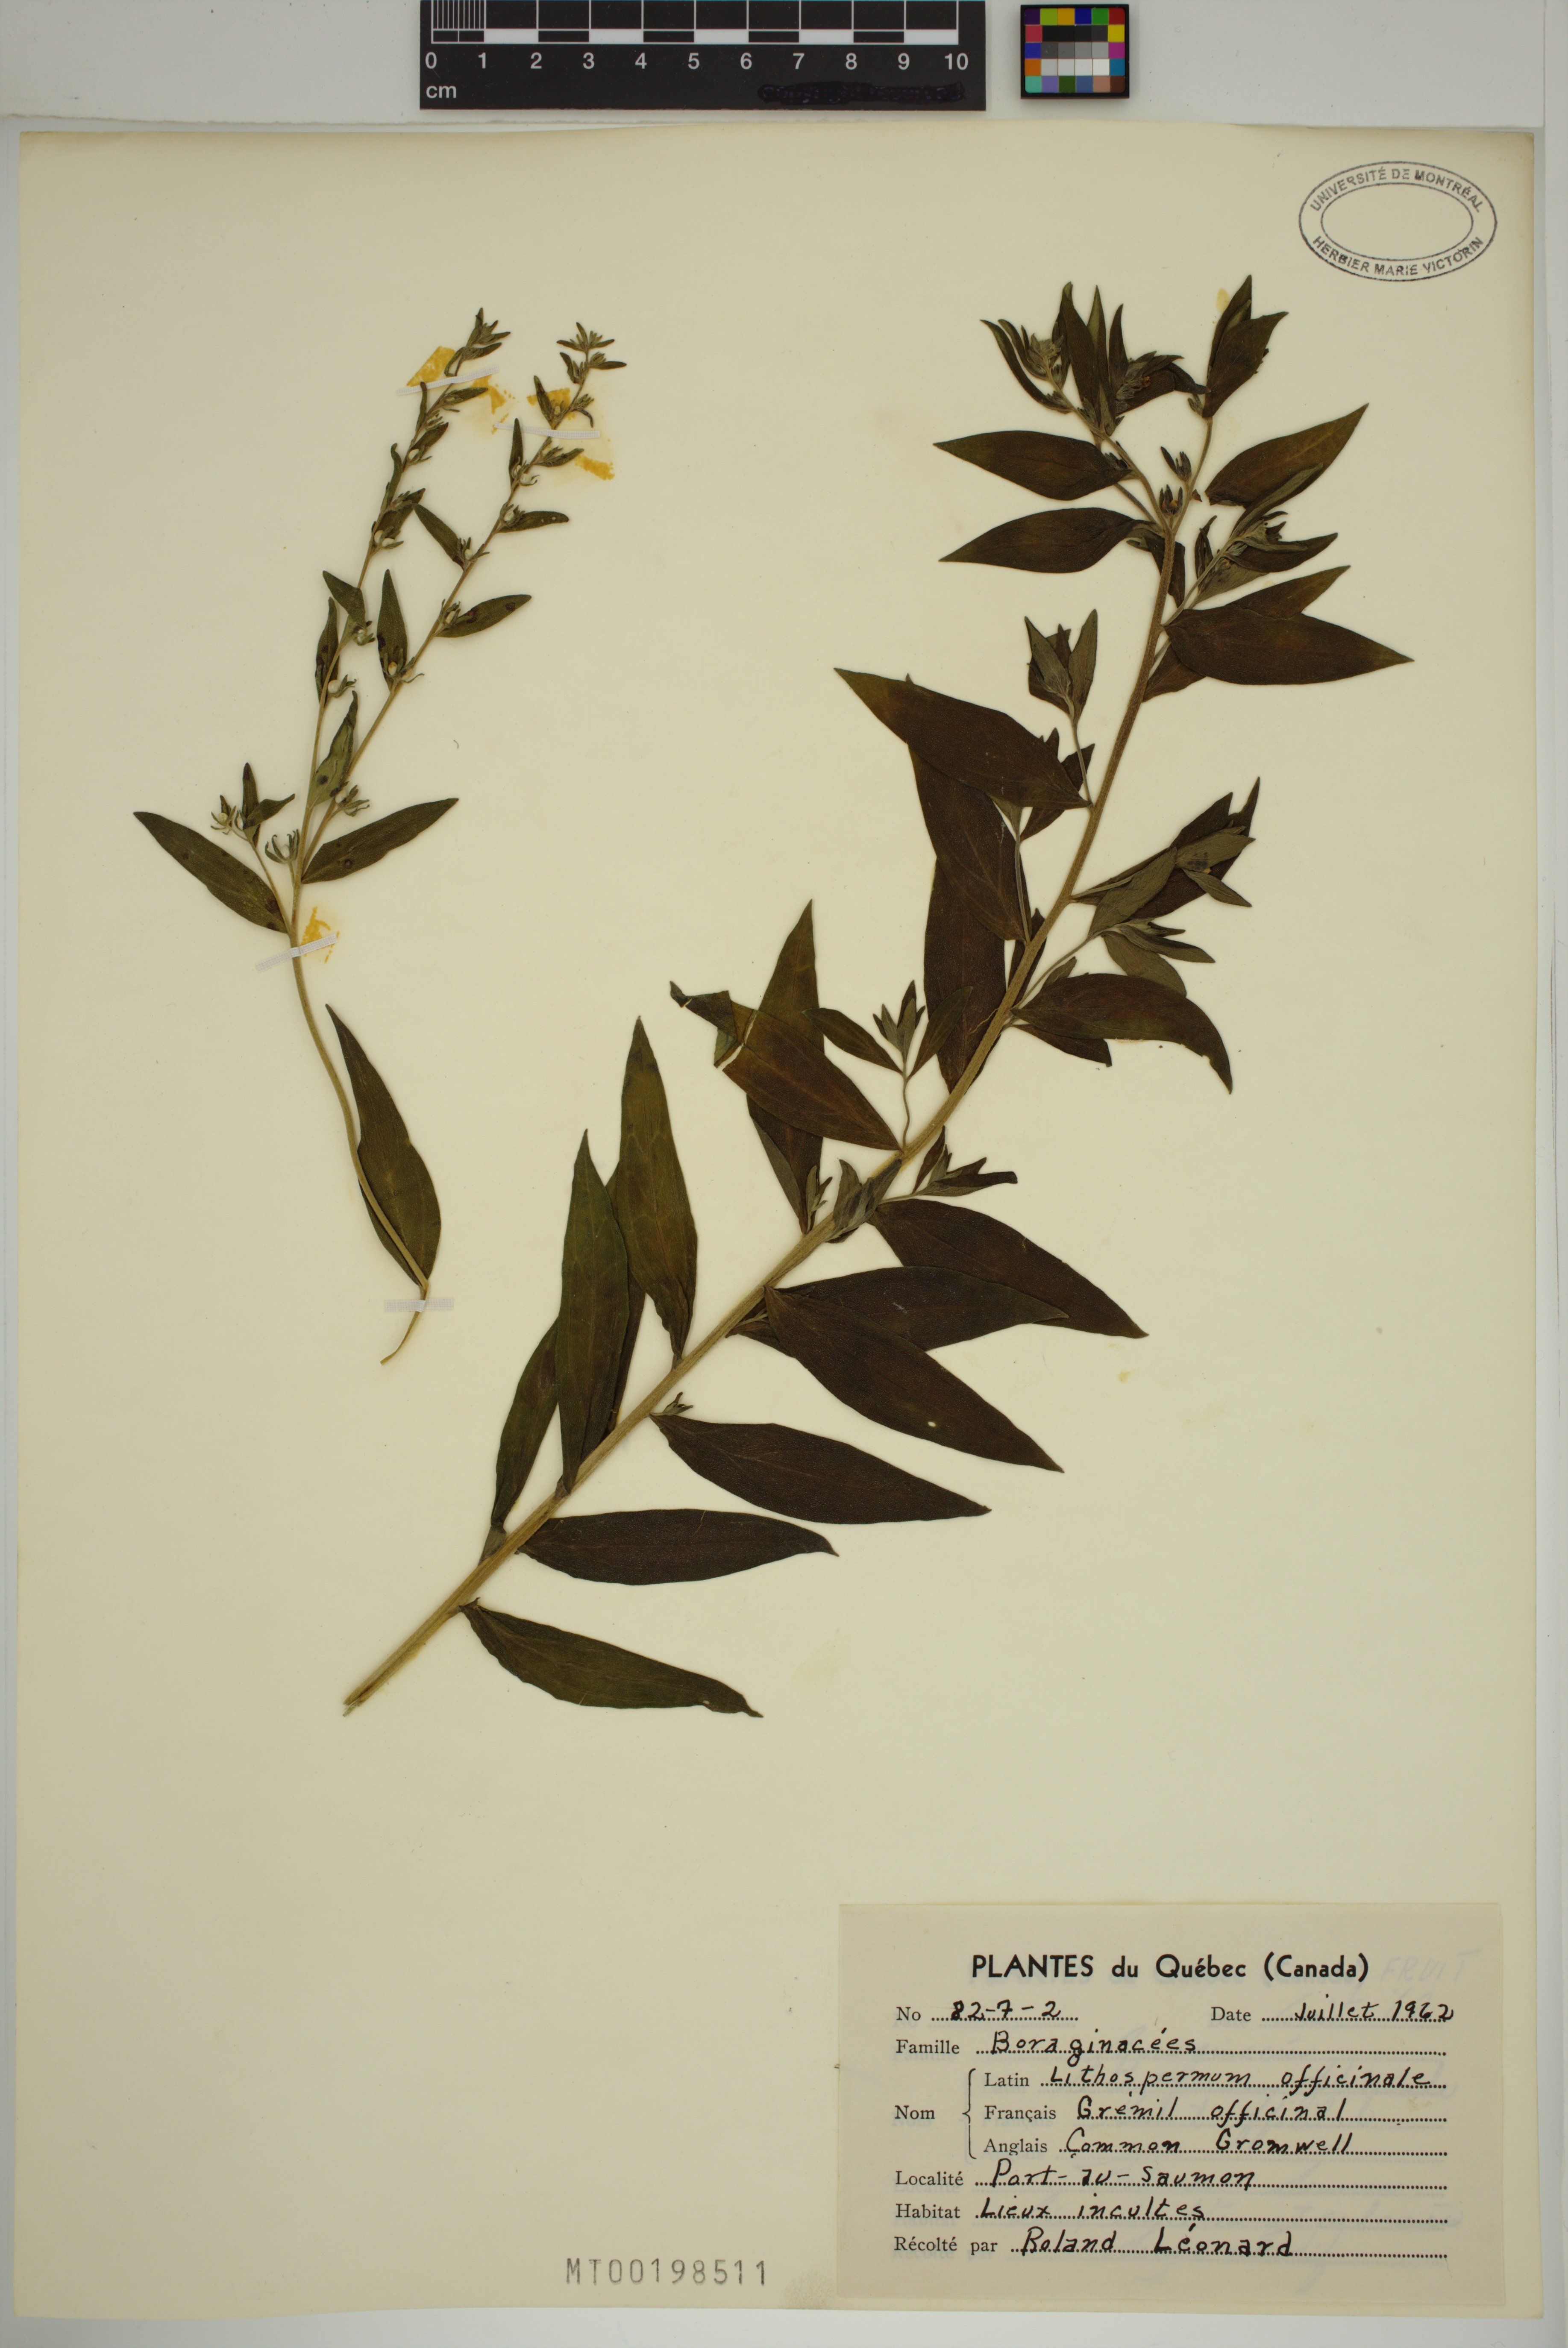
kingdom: Plantae
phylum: Tracheophyta
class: Magnoliopsida
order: Boraginales
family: Boraginaceae
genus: Lithospermum
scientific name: Lithospermum officinale
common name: Common gromwell
